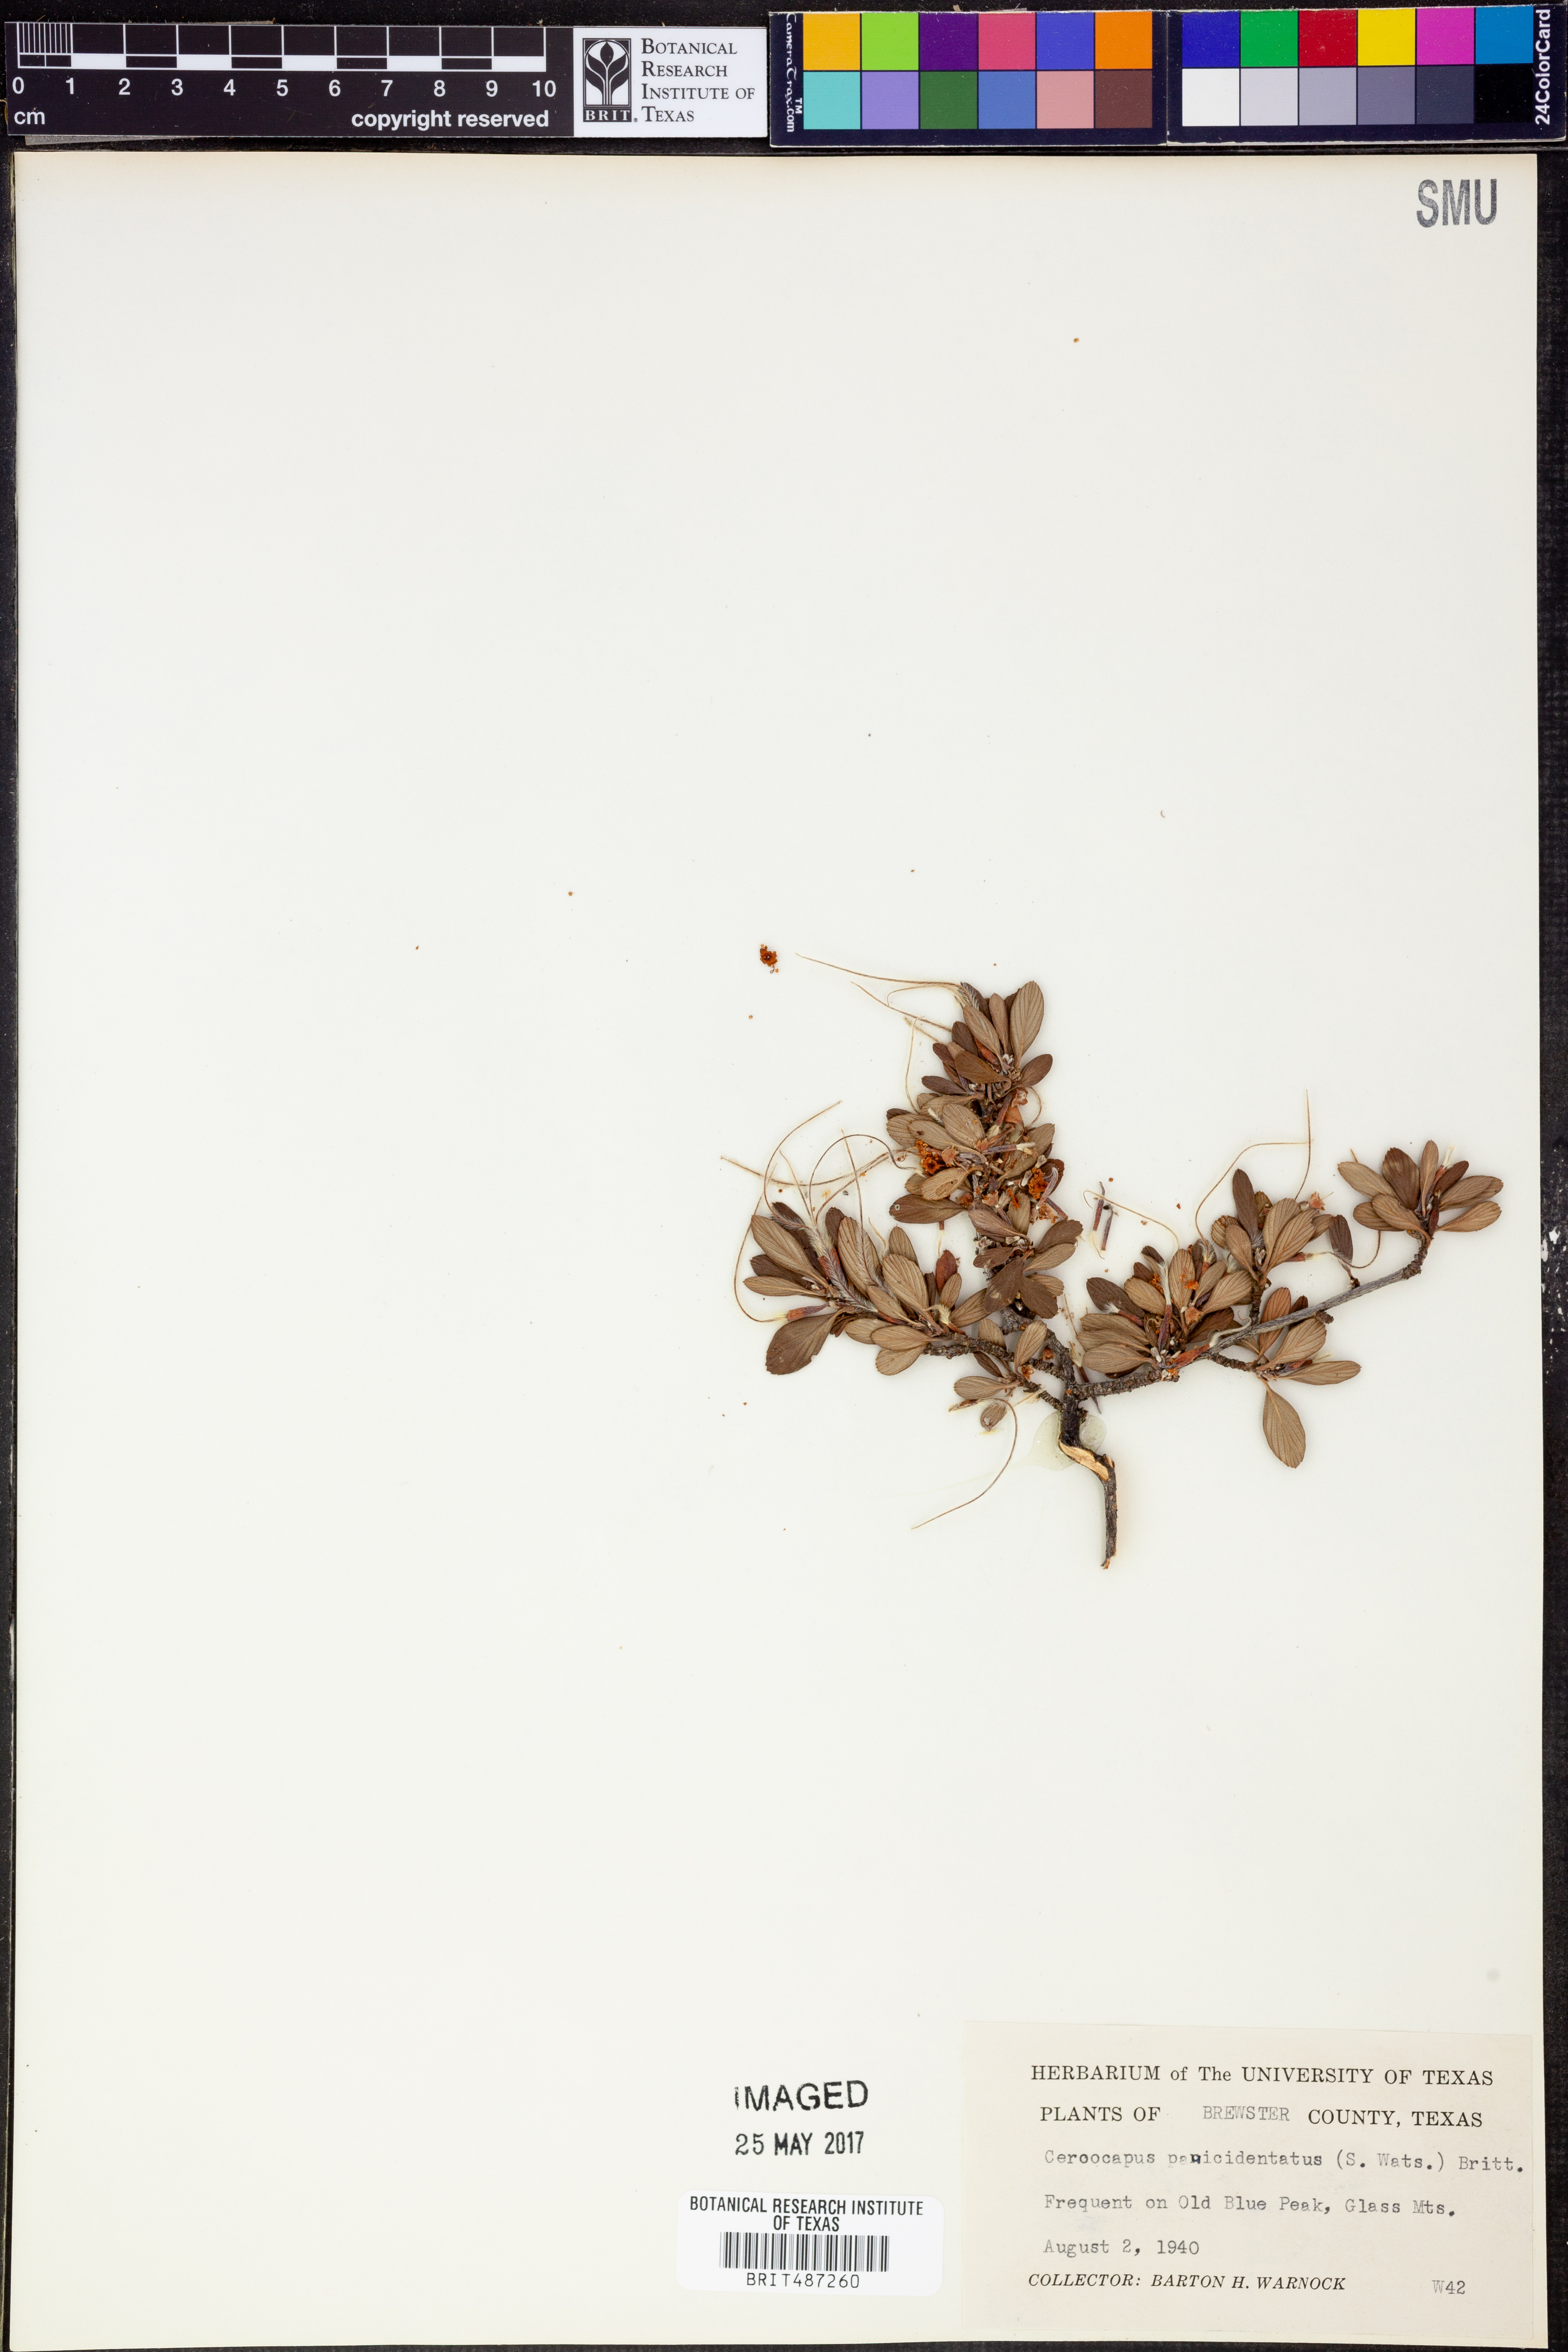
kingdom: Plantae
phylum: Tracheophyta
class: Magnoliopsida
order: Rosales
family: Rosaceae
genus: Cercocarpus
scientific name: Cercocarpus breviflorus
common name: Wright's mountain-mahogany
